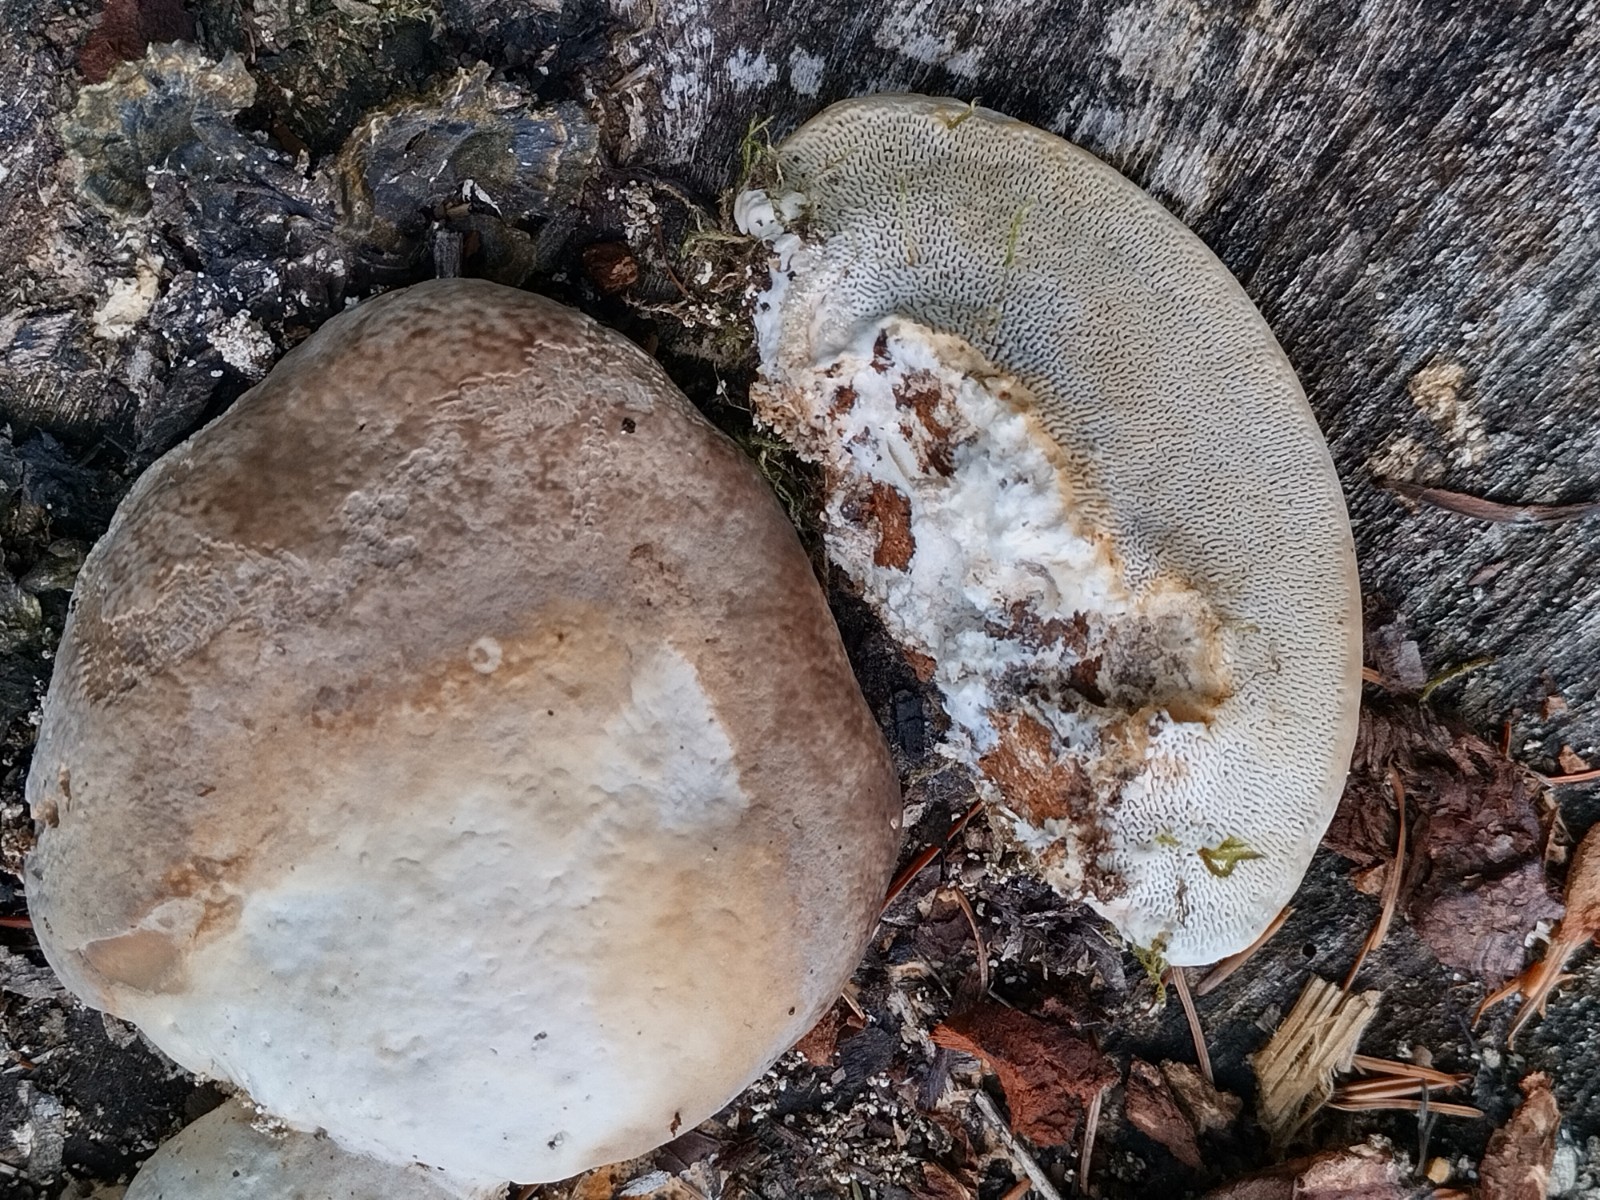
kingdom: Fungi
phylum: Basidiomycota
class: Agaricomycetes
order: Polyporales
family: Polyporaceae
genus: Trametes
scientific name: Trametes hirsuta
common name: håret læderporesvamp
